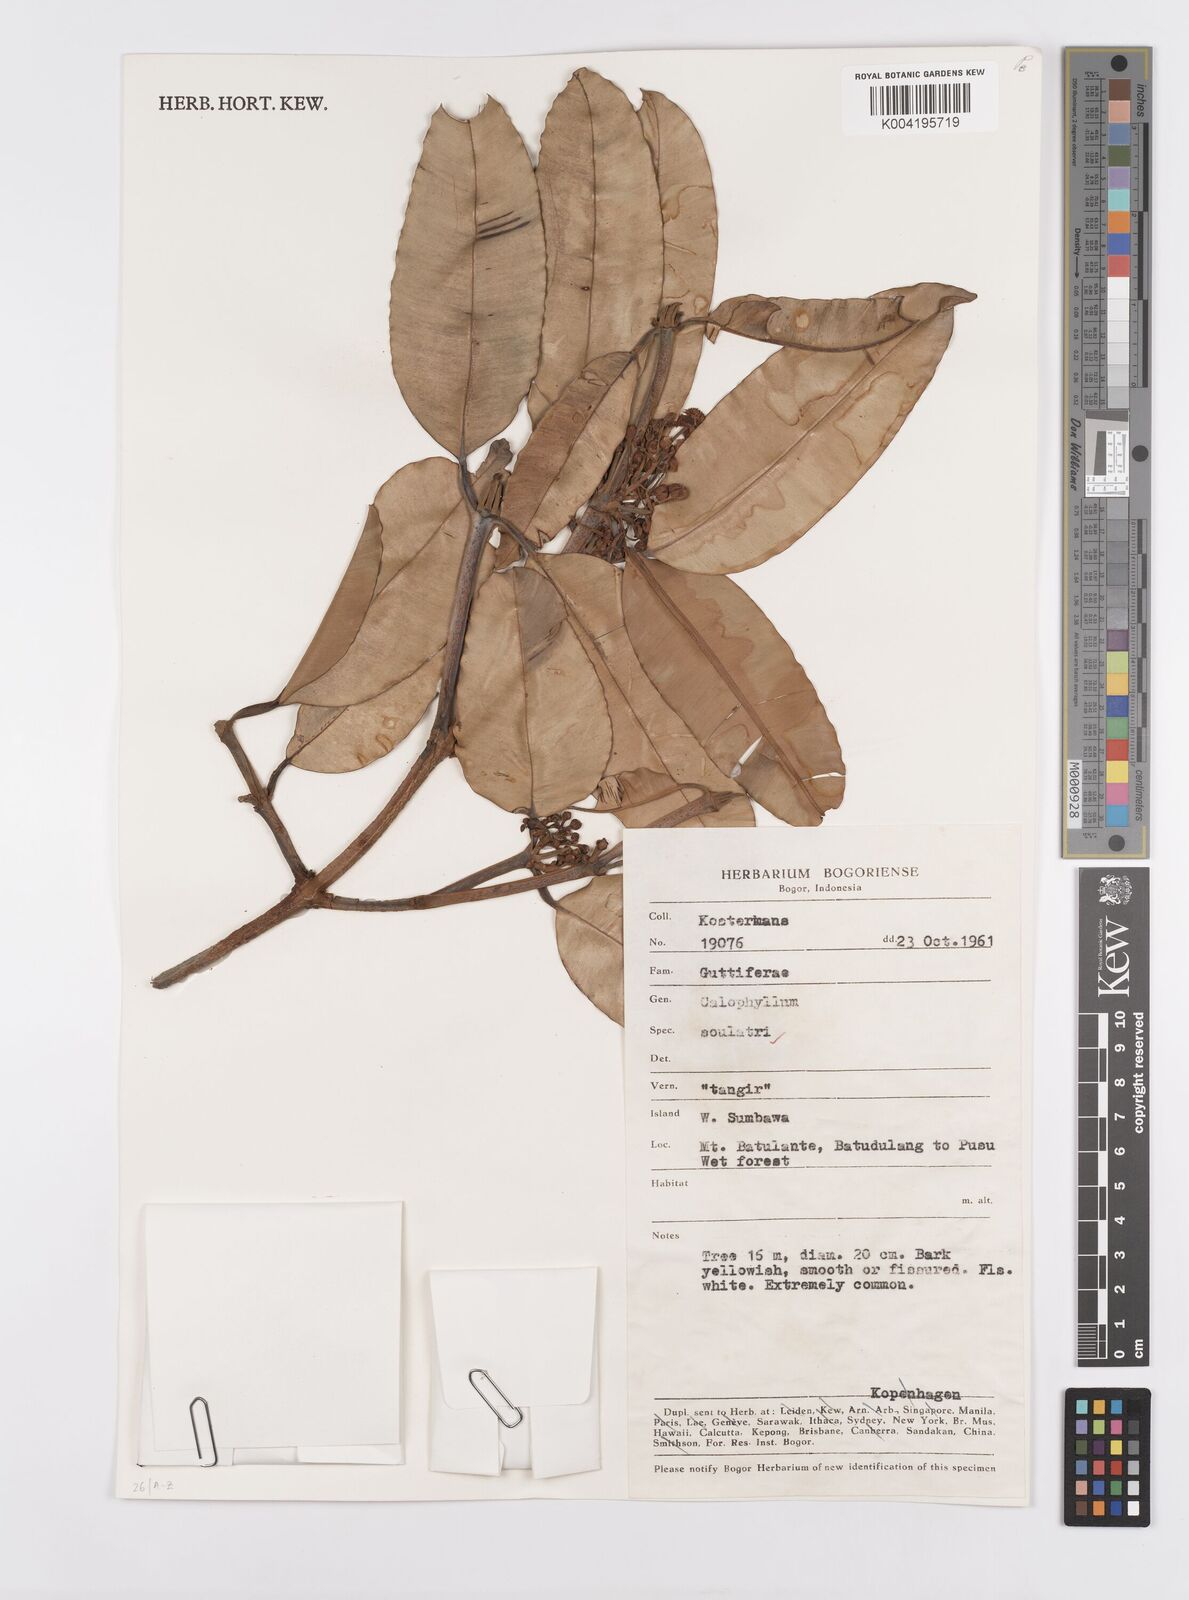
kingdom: Plantae
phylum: Tracheophyta
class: Magnoliopsida
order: Malpighiales
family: Calophyllaceae
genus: Calophyllum
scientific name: Calophyllum soulattri
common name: Bitangoor boonot
